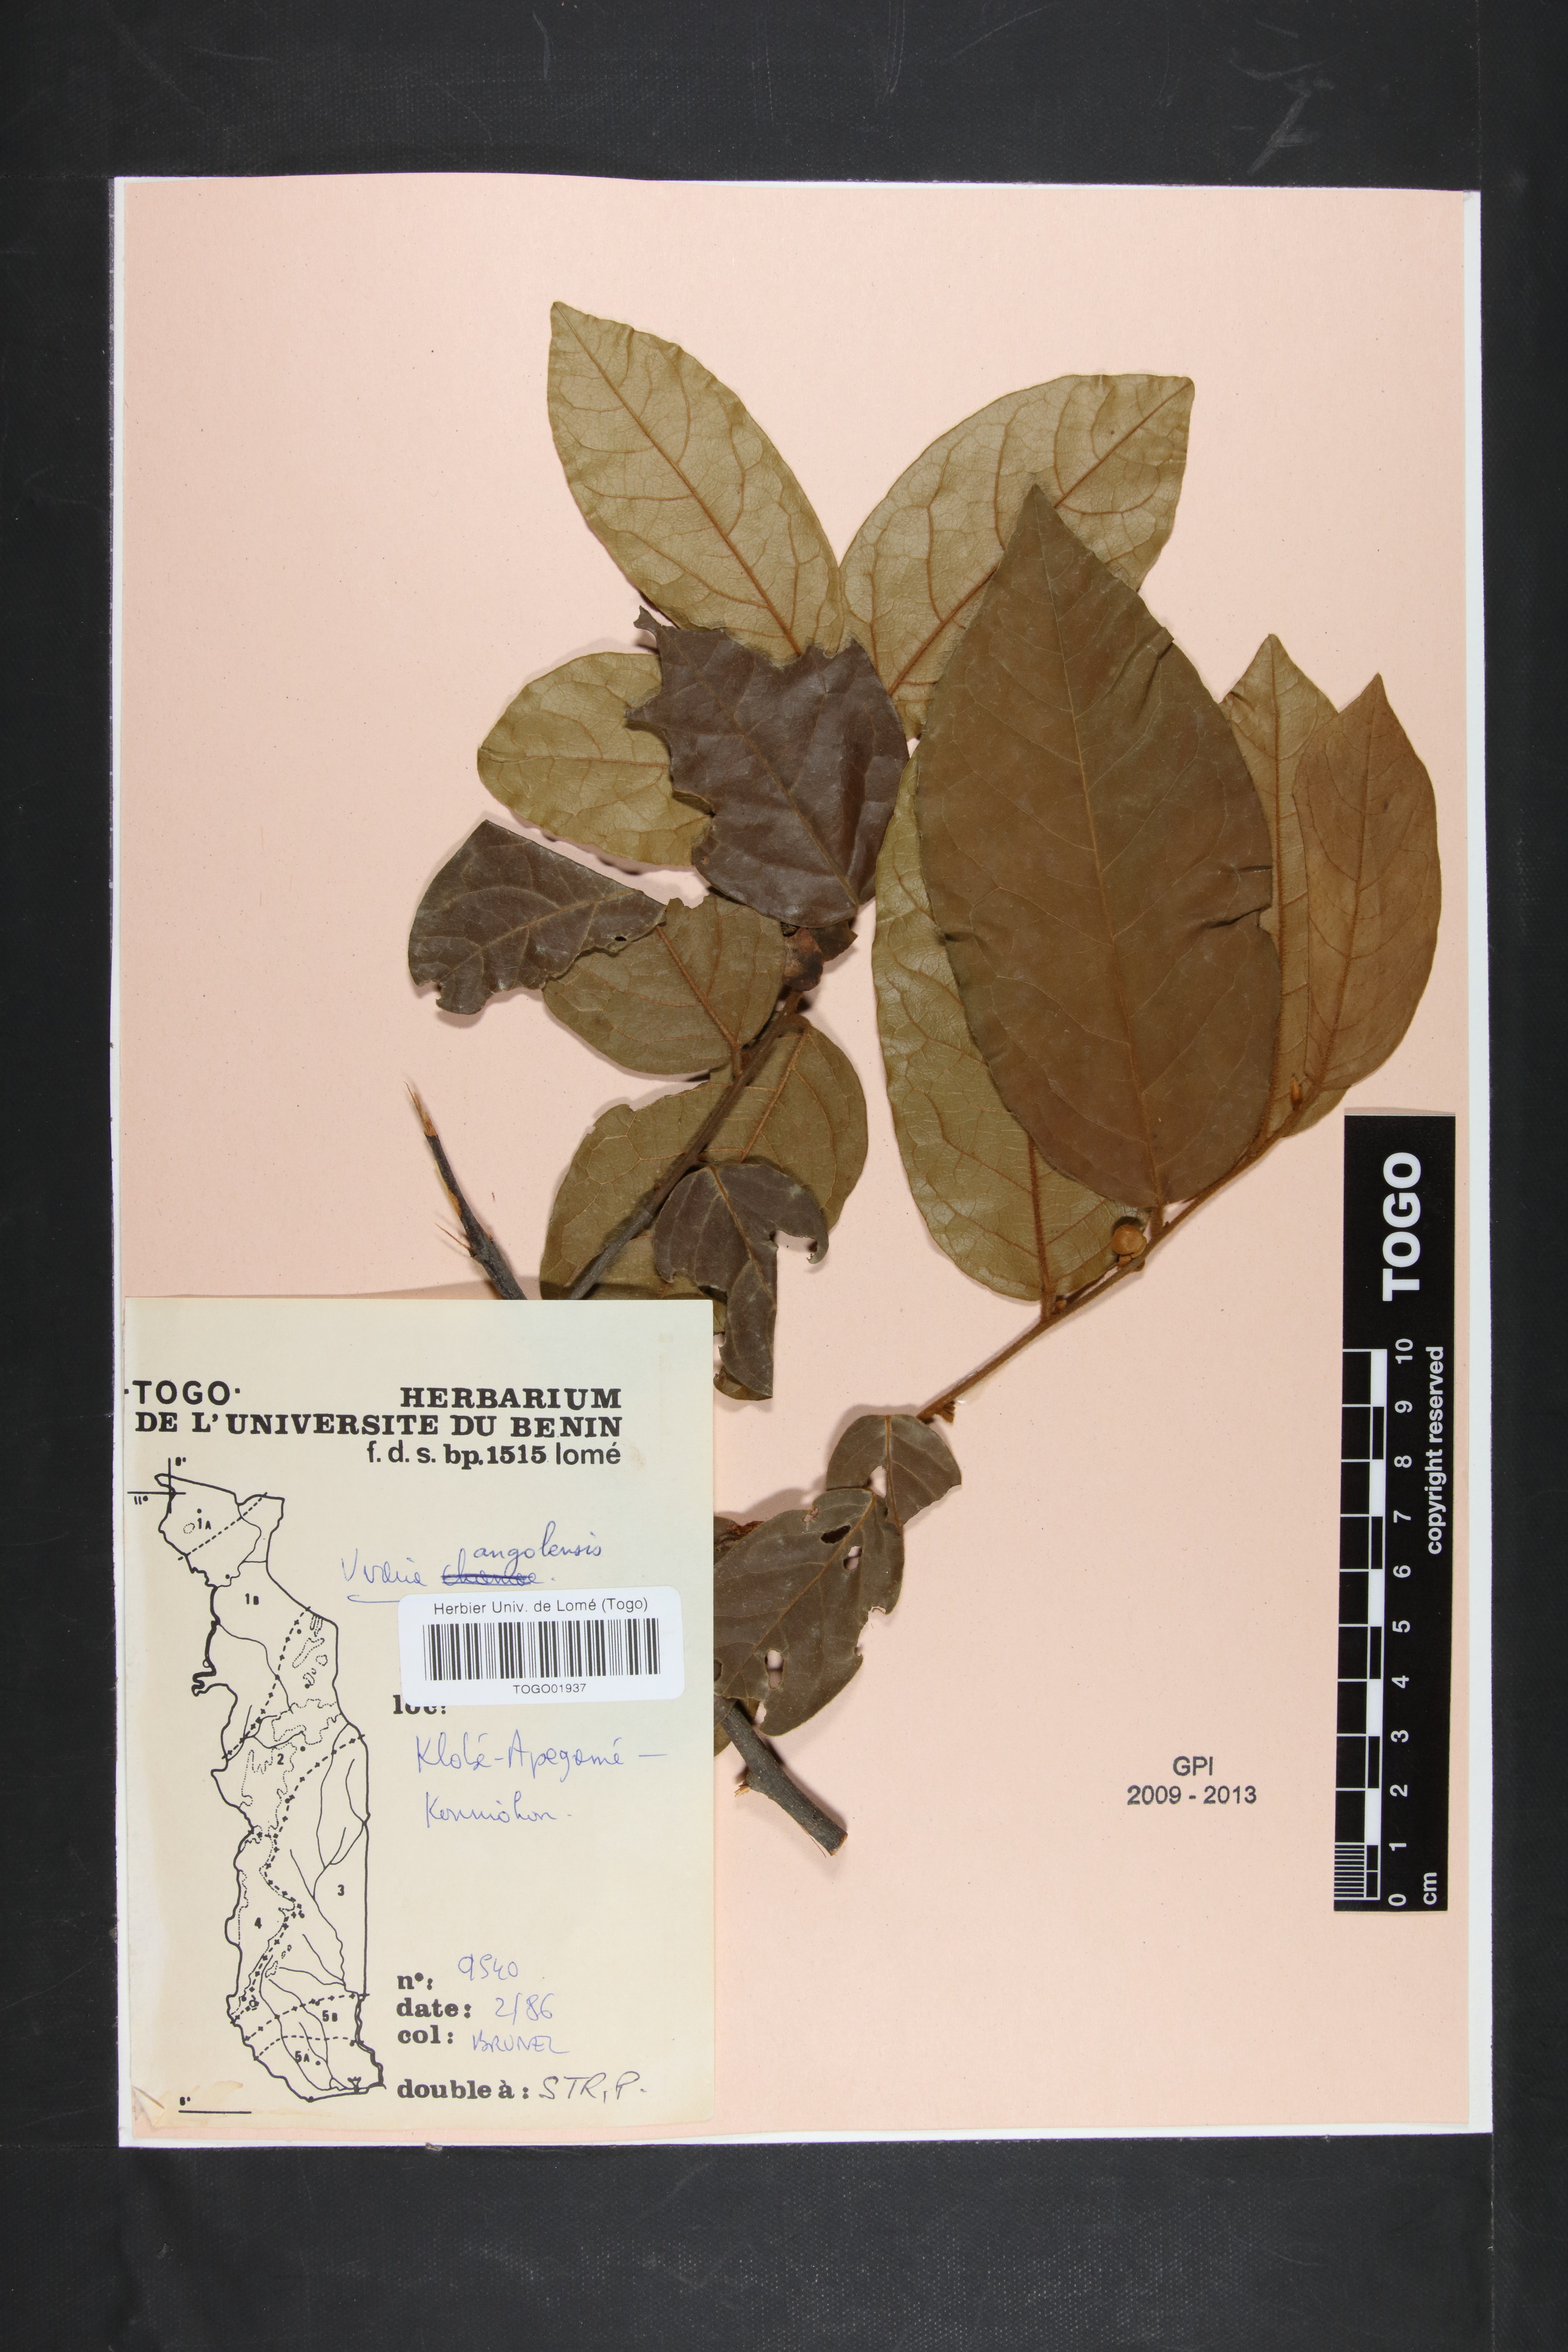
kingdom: Plantae
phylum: Tracheophyta
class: Magnoliopsida
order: Magnoliales
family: Annonaceae
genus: Uvaria
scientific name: Uvaria angolensis
